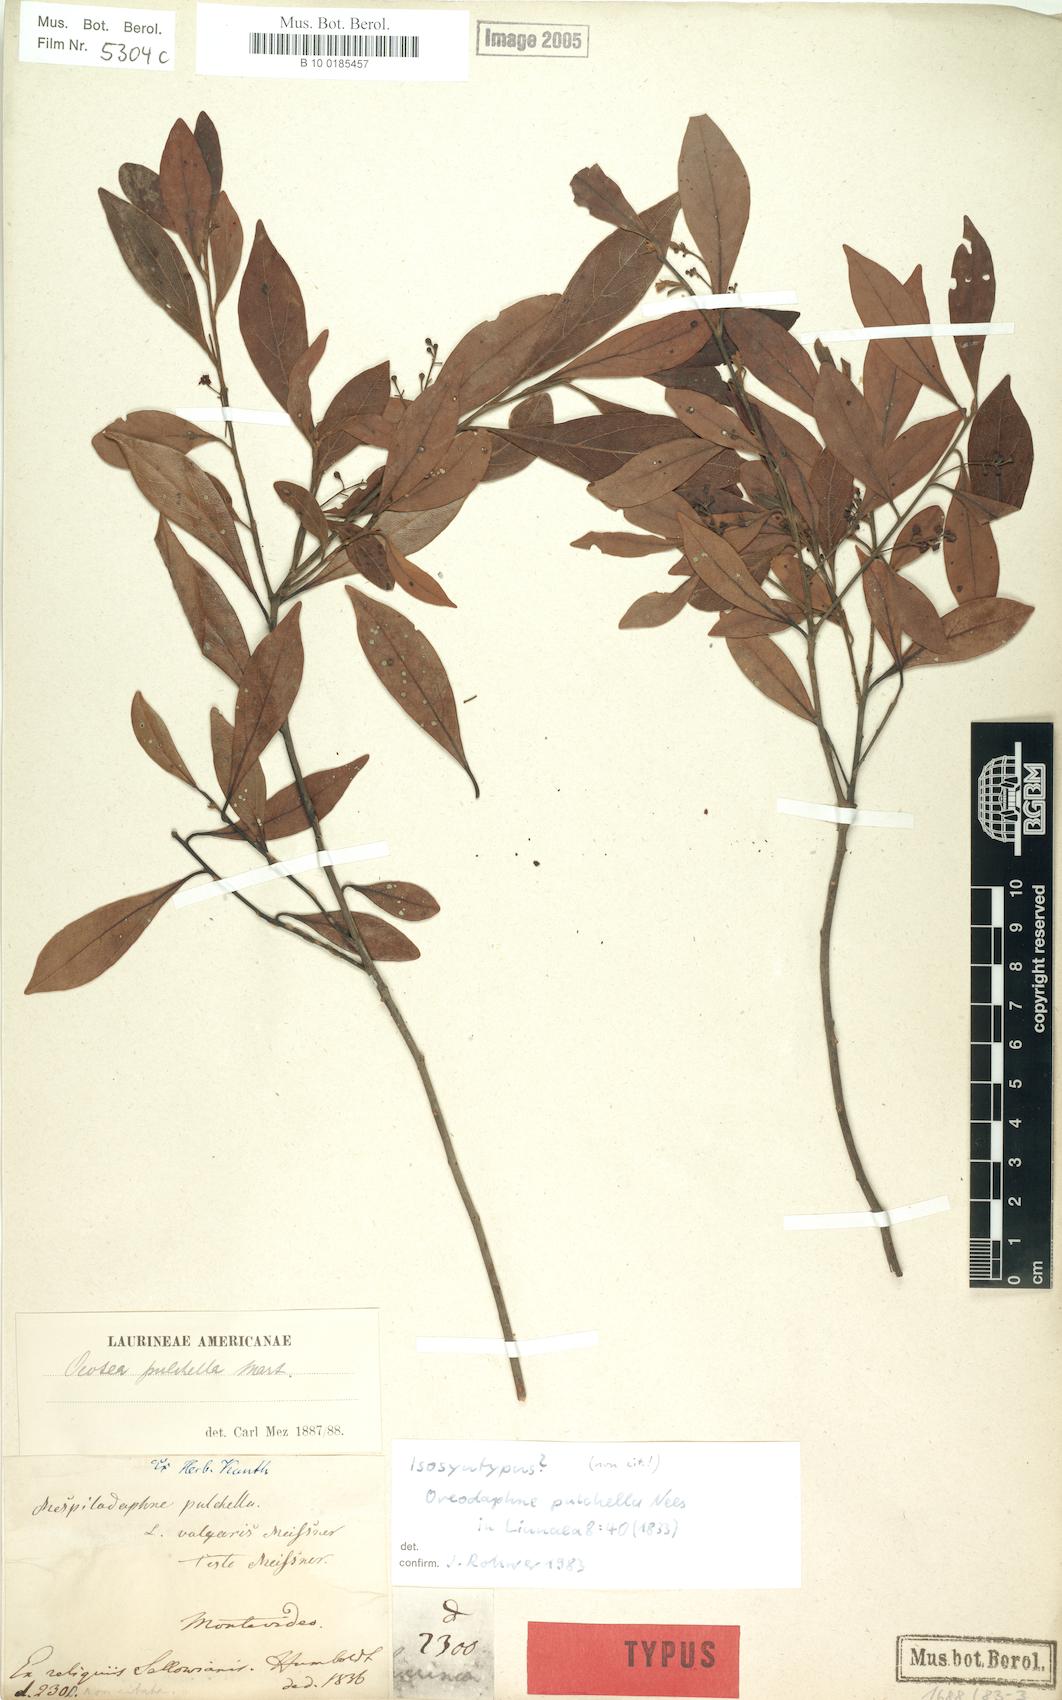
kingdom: Plantae
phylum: Tracheophyta
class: Magnoliopsida
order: Laurales
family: Lauraceae
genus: Mespilodaphne
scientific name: Mespilodaphne pulchella
